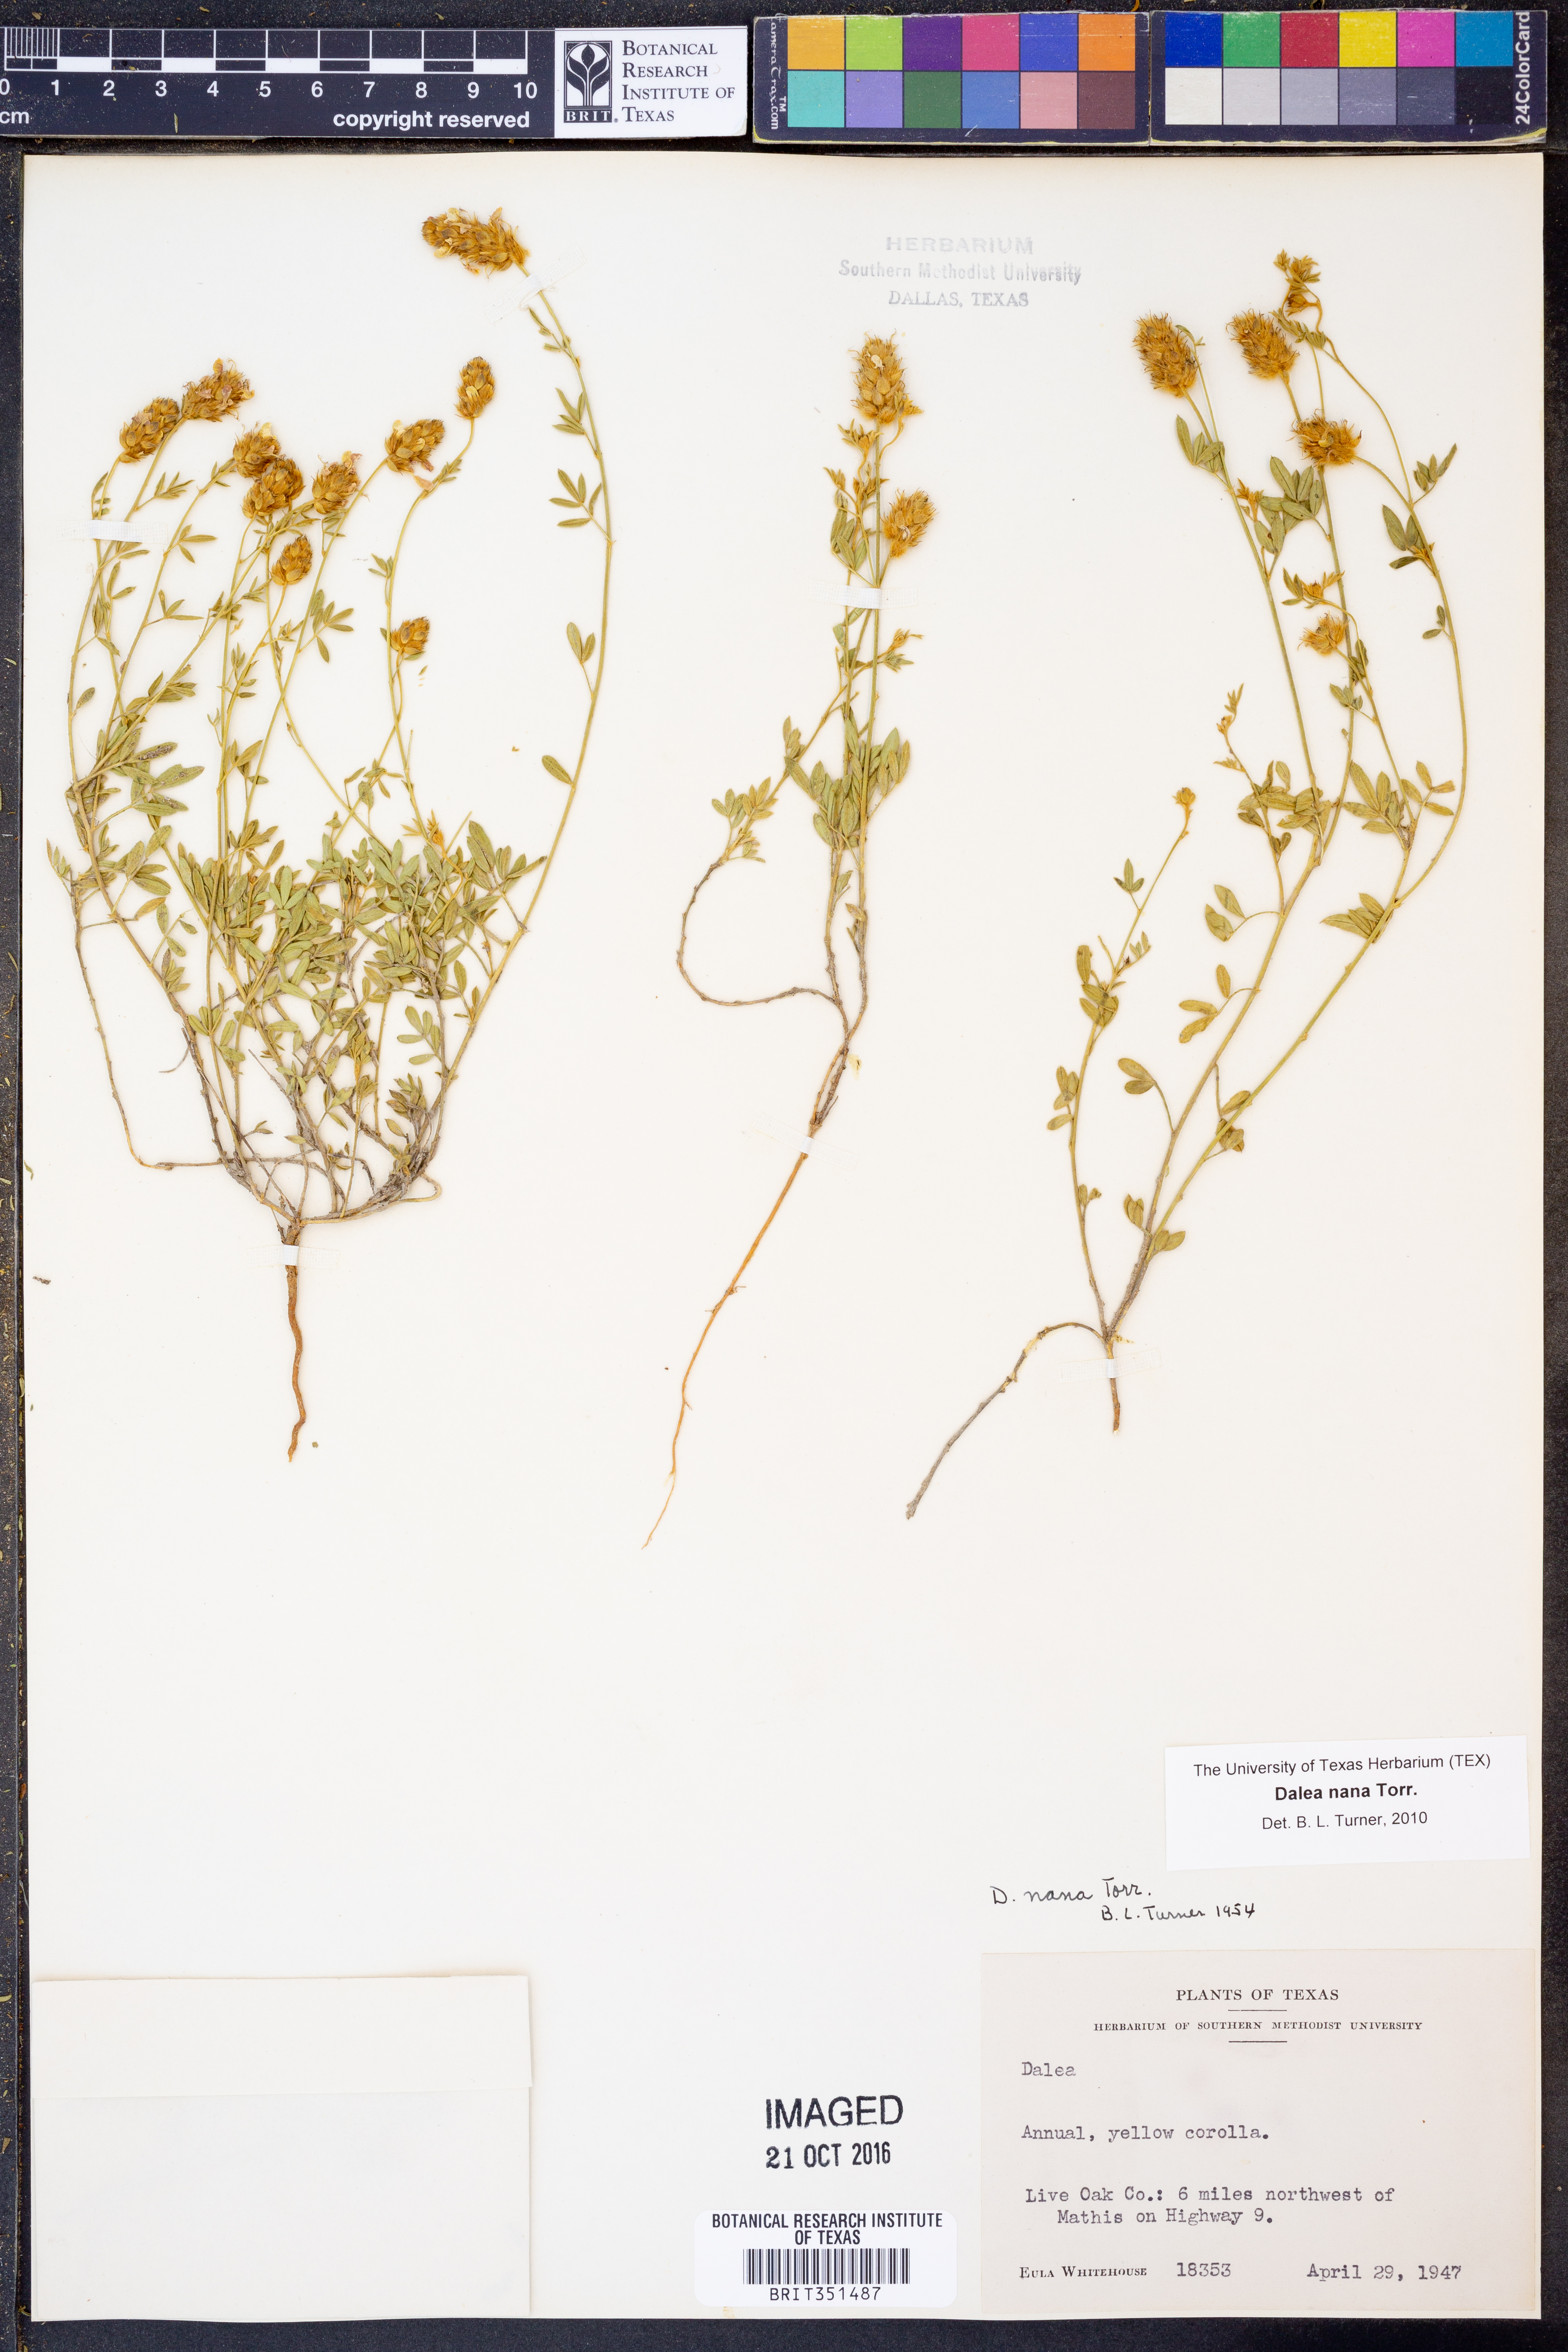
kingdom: Plantae
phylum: Tracheophyta
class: Magnoliopsida
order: Fabales
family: Fabaceae
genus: Dalea
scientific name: Dalea nana
